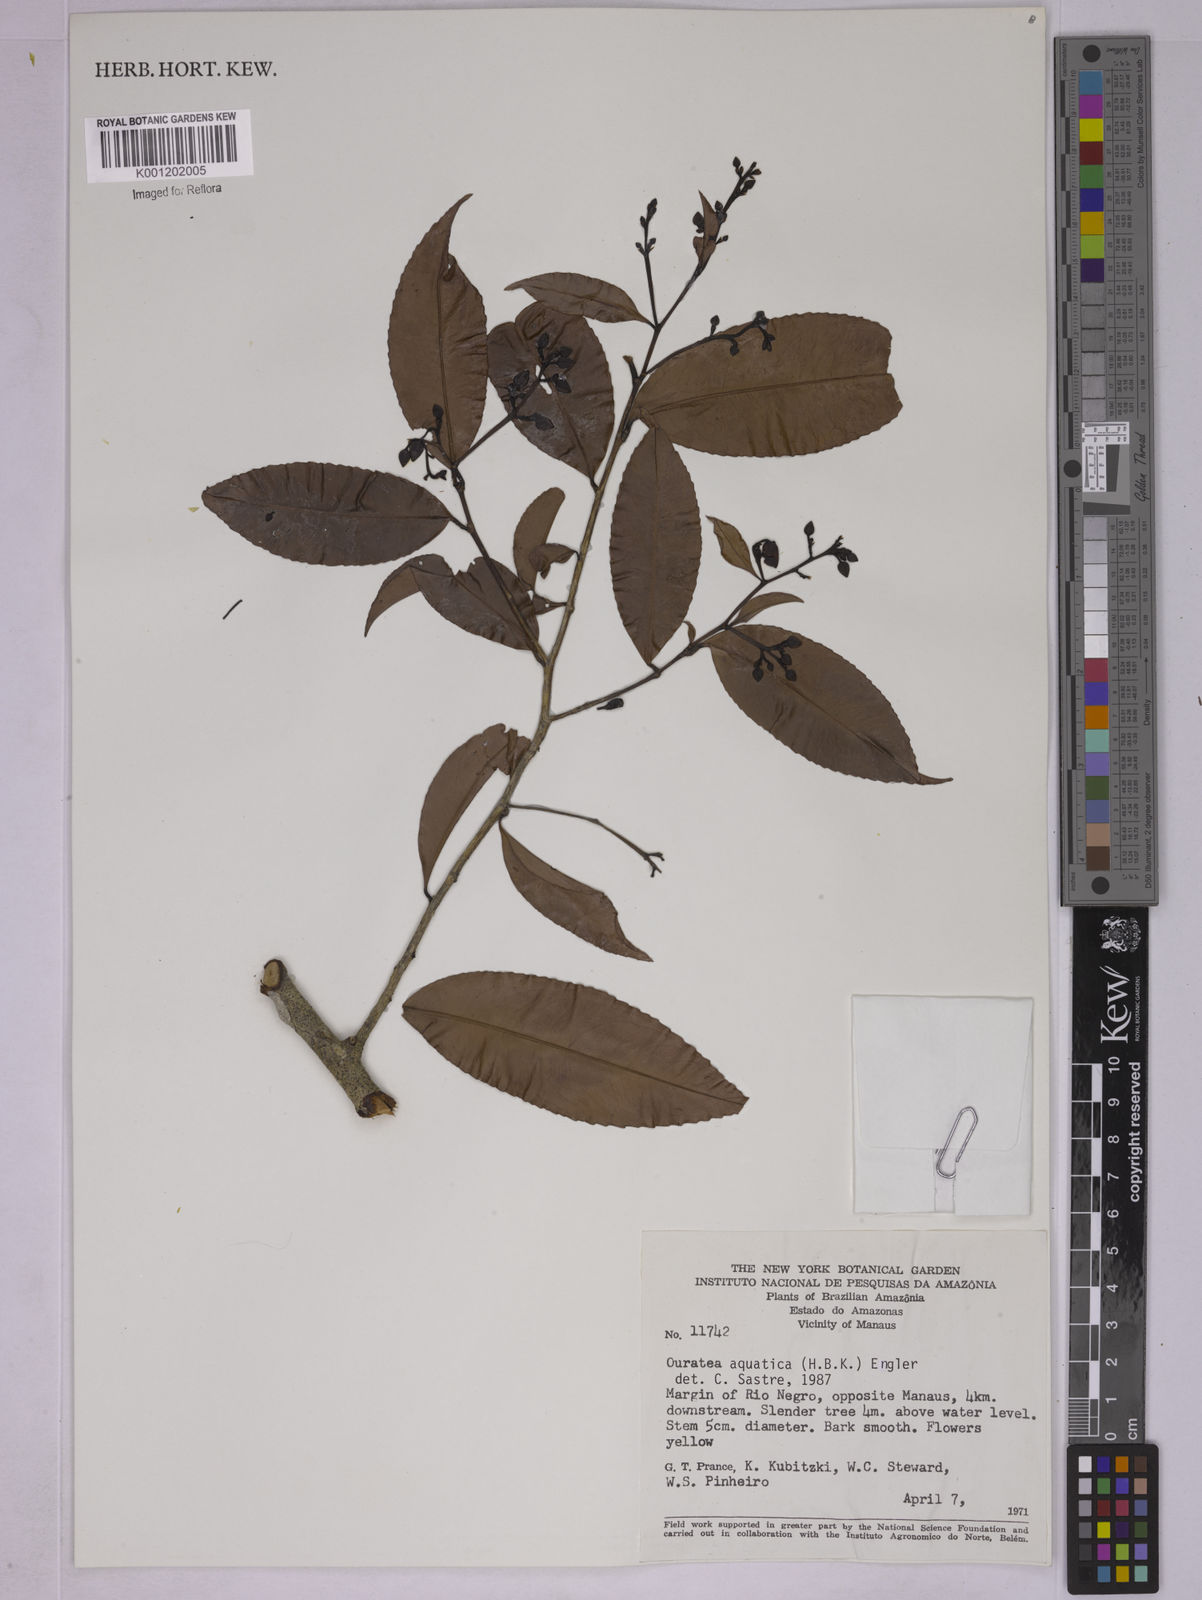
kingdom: Plantae
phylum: Tracheophyta
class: Magnoliopsida
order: Malpighiales
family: Ochnaceae
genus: Ouratea
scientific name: Ouratea multiflora
